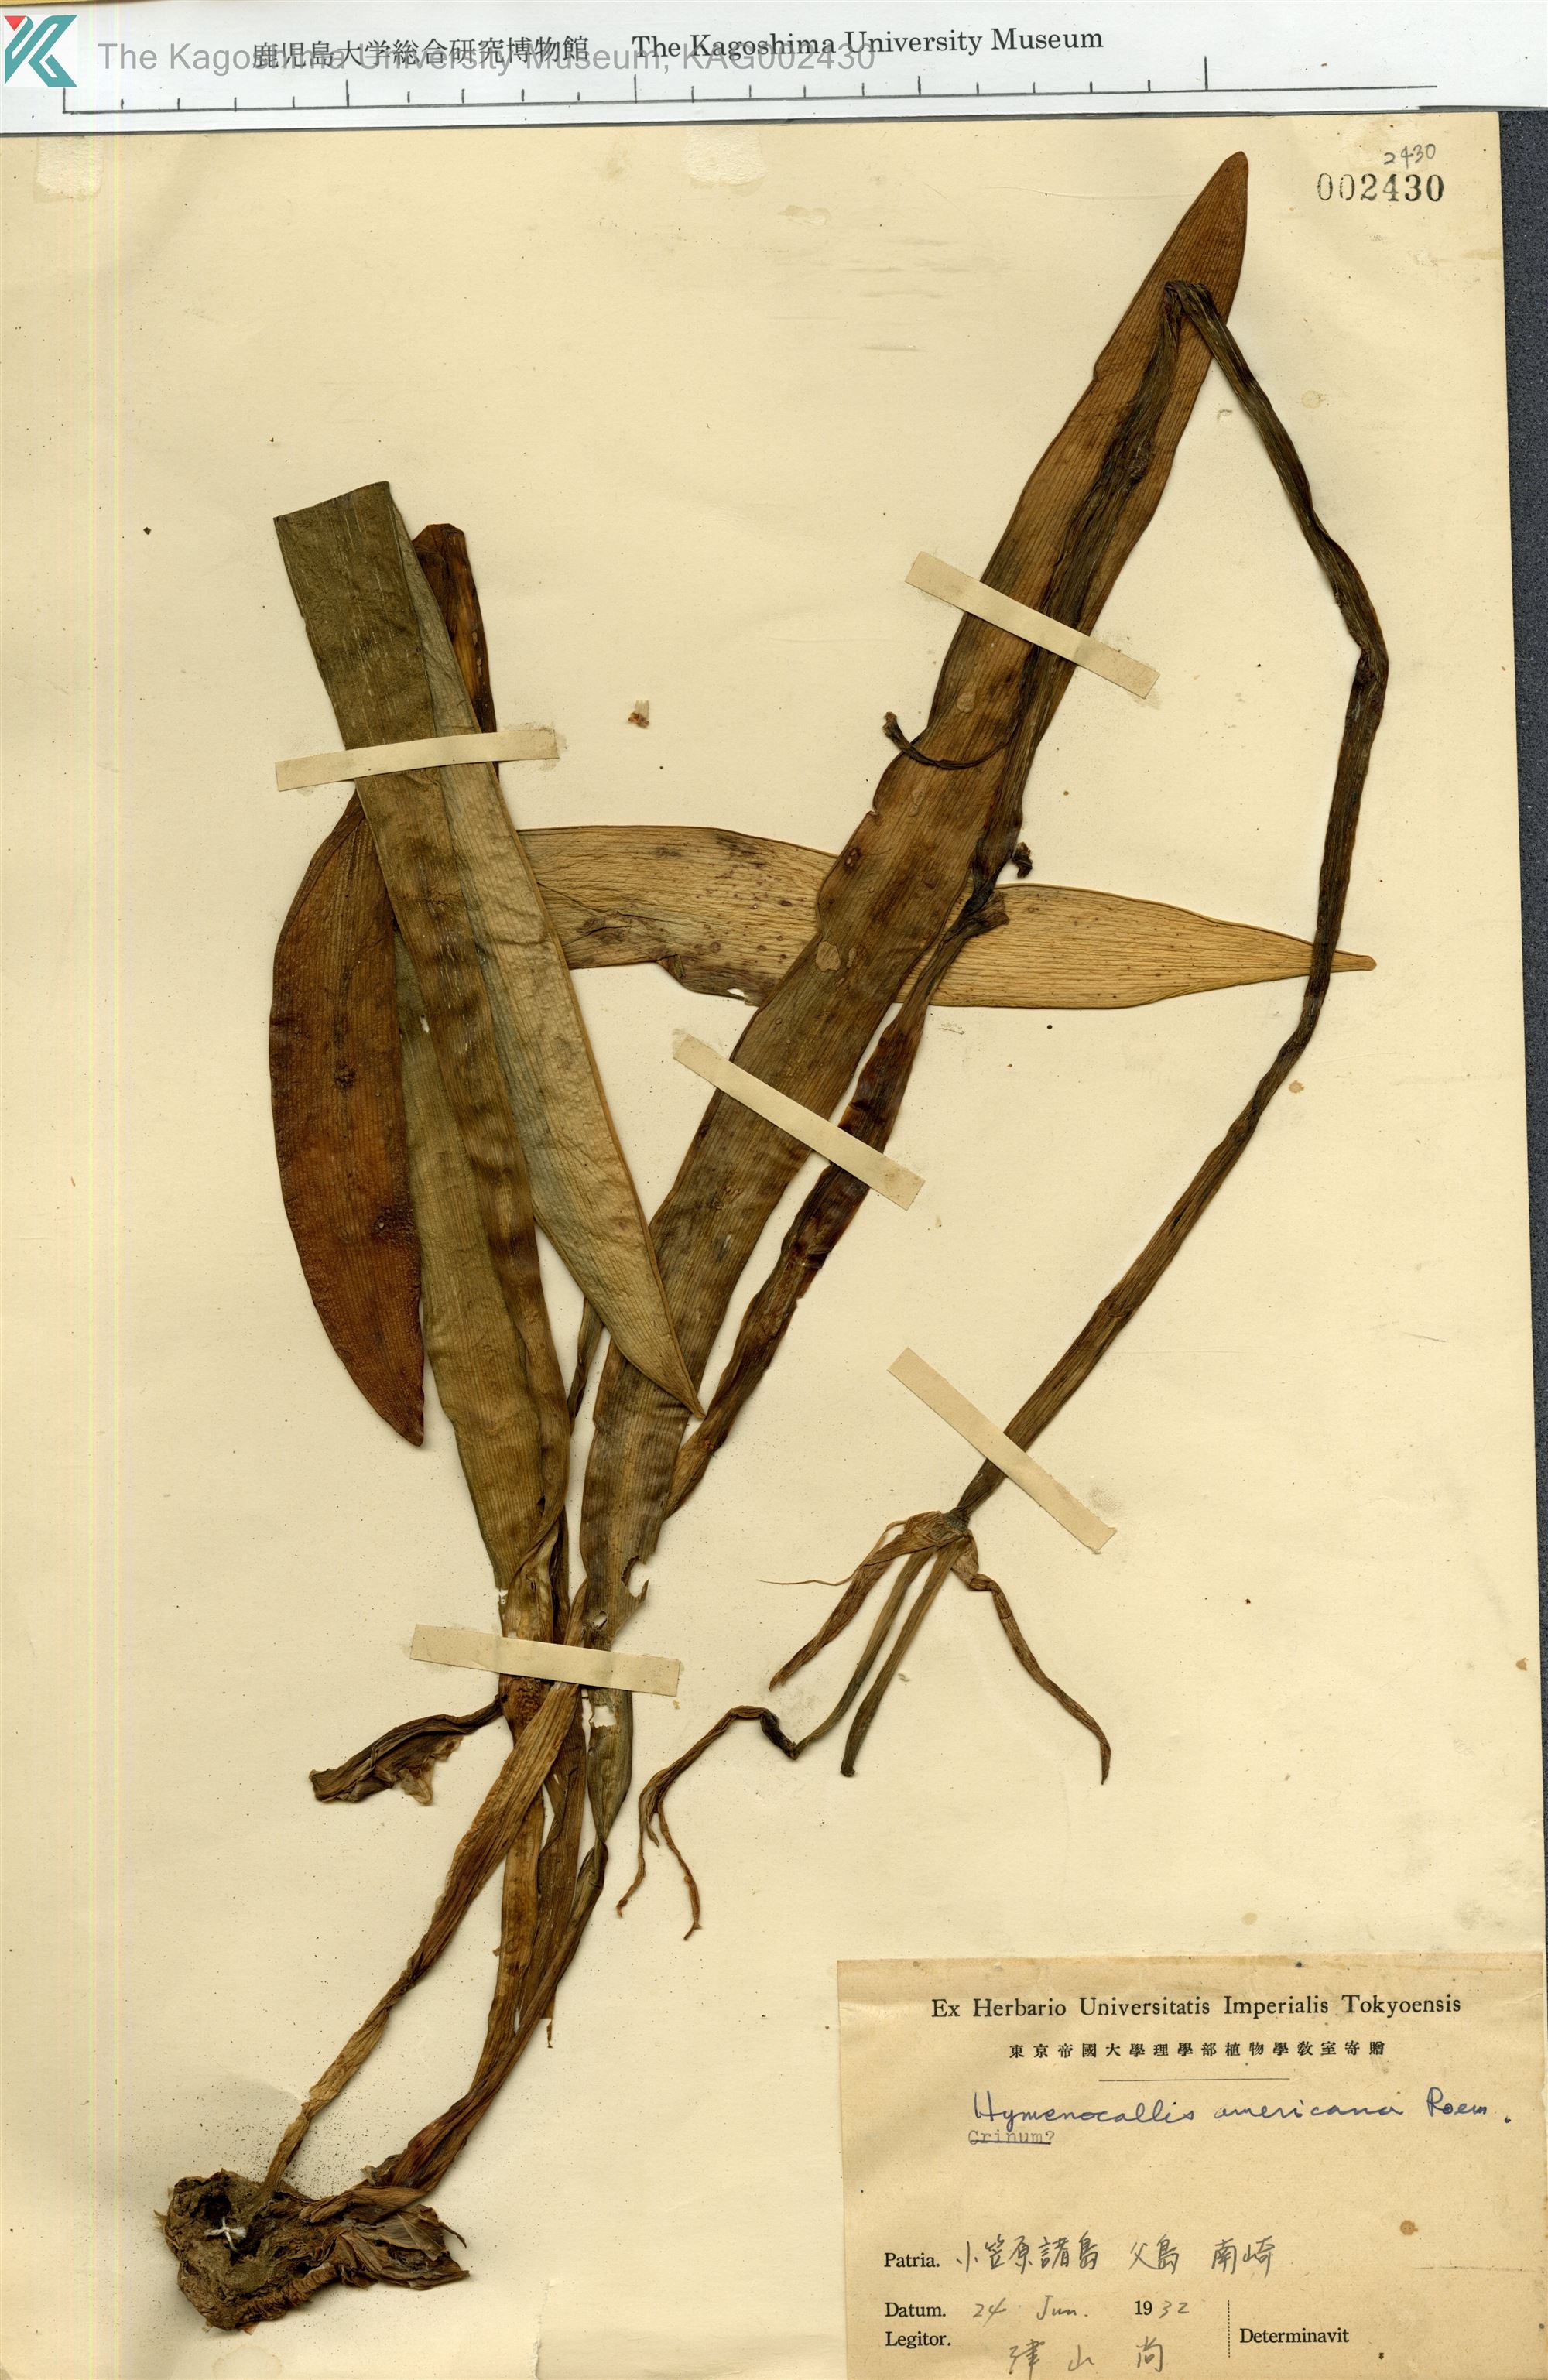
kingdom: Plantae
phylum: Tracheophyta
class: Liliopsida
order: Asparagales
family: Amaryllidaceae
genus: Hymenocallis
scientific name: Hymenocallis littoralis
